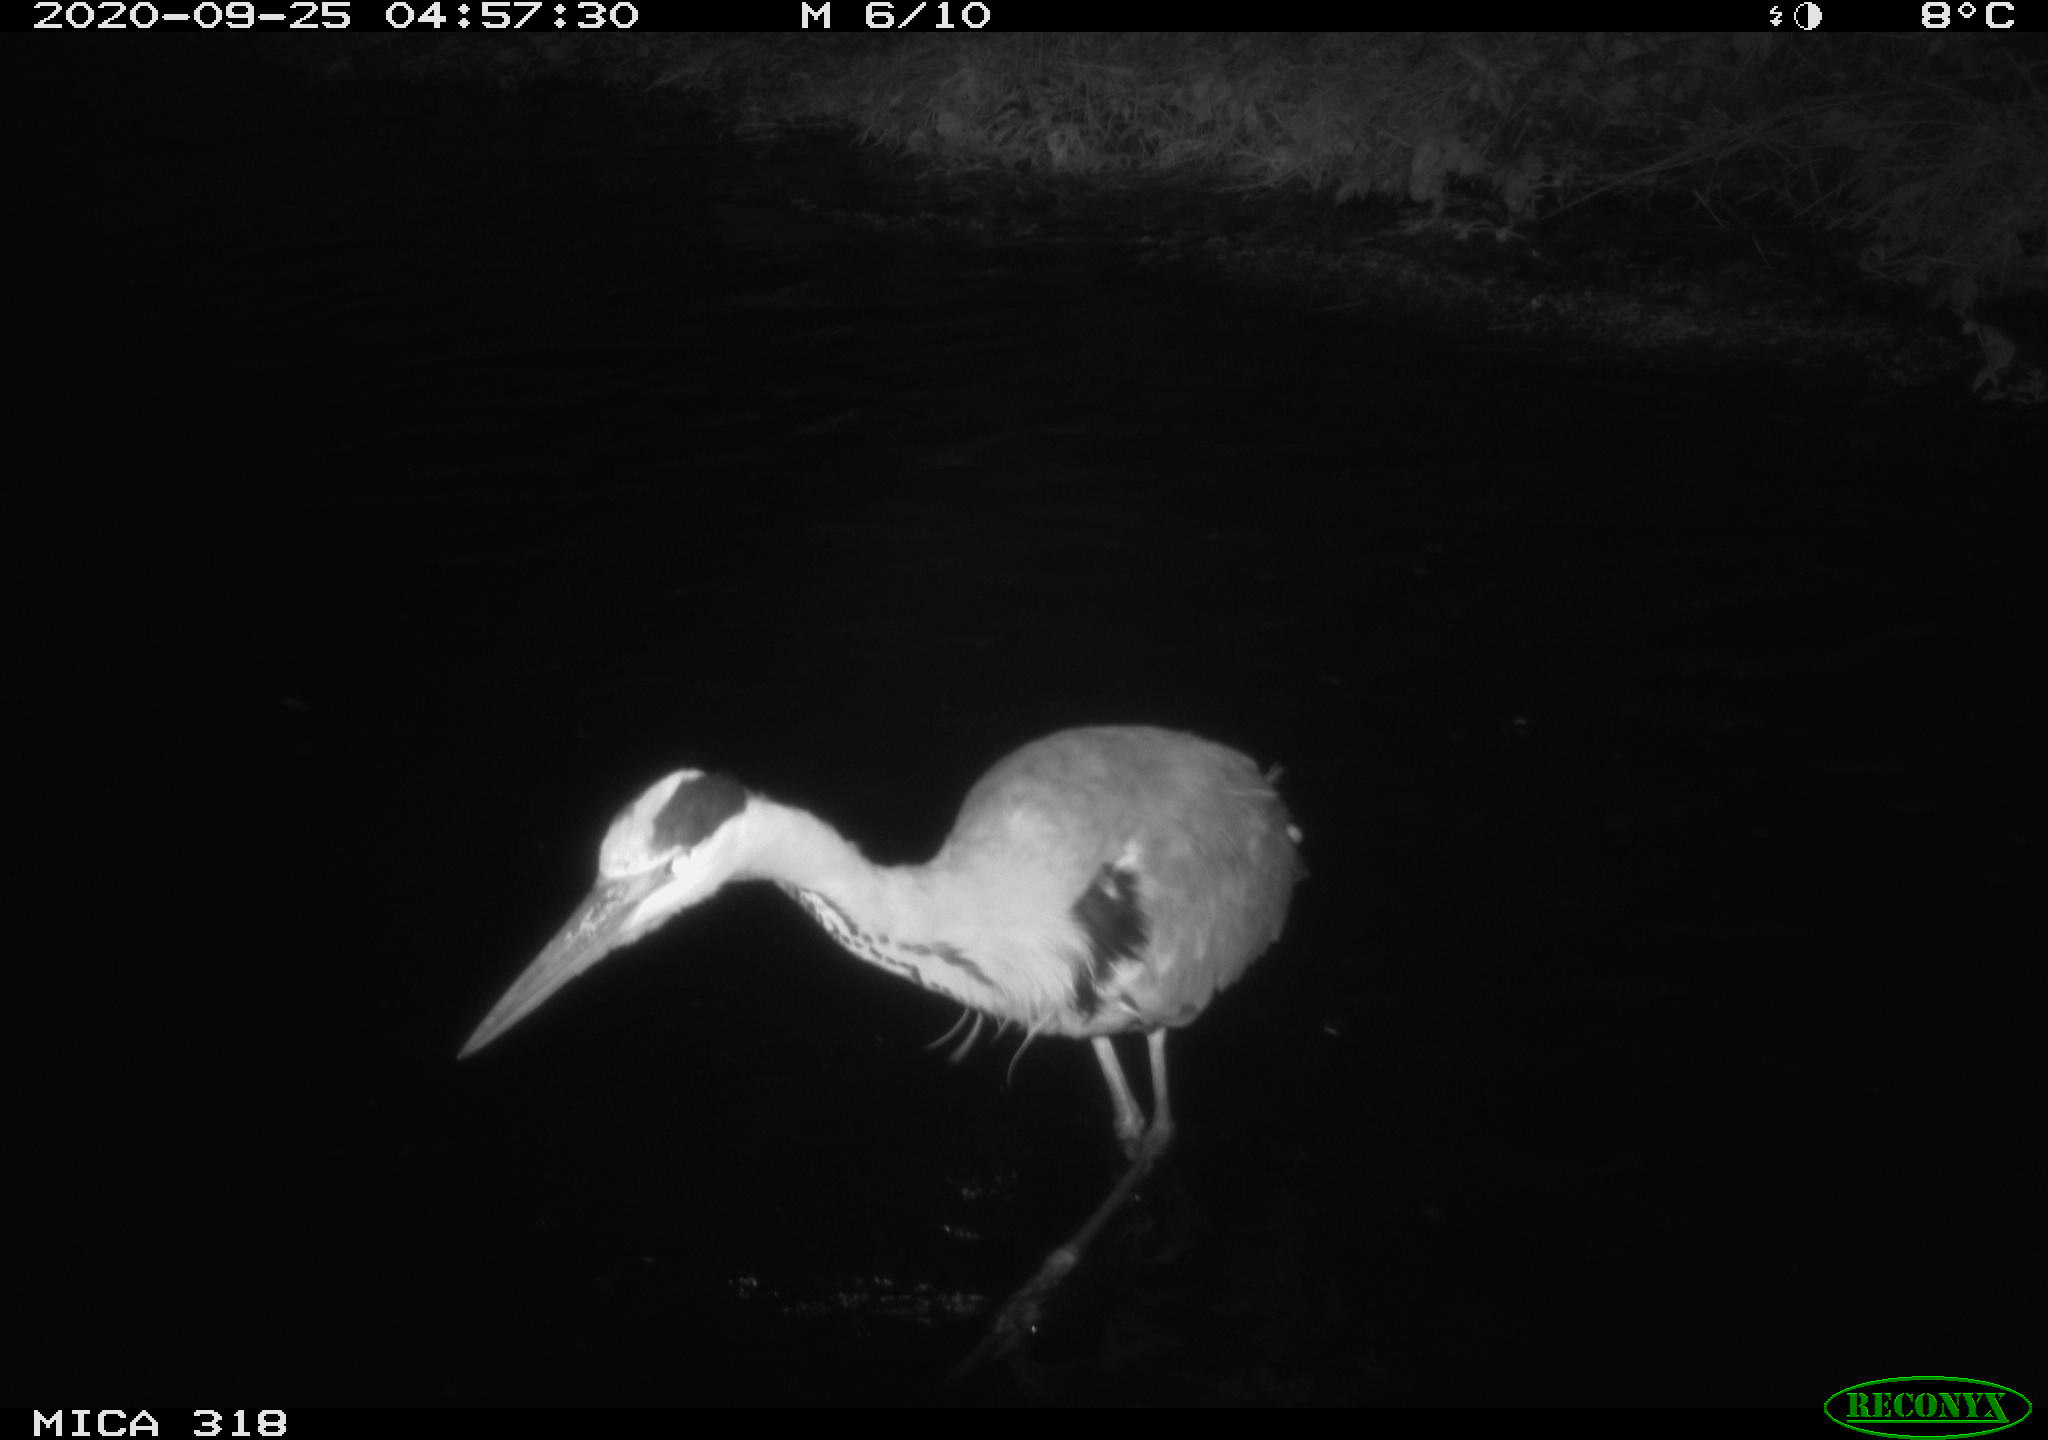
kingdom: Animalia
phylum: Chordata
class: Aves
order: Pelecaniformes
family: Ardeidae
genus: Ardea
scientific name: Ardea cinerea
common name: Grey heron
